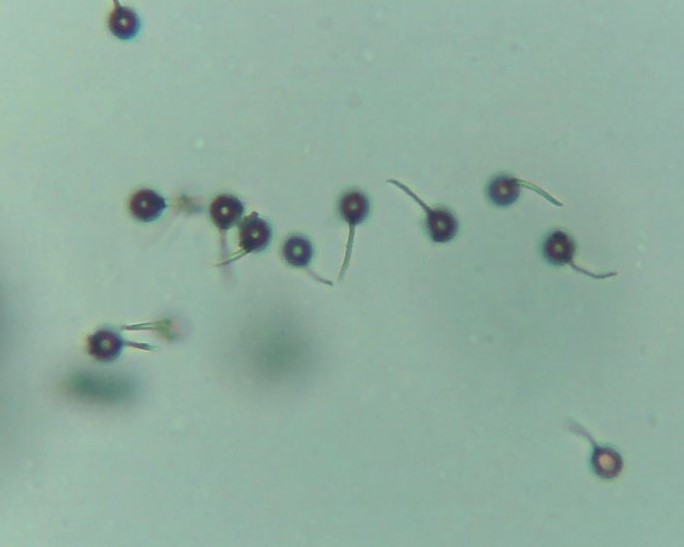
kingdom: Fungi
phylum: Basidiomycota
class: Agaricomycetes
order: Agaricales
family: Lycoperdaceae
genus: Bovista
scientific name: Bovista nigrescens
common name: sortagtig bovist
